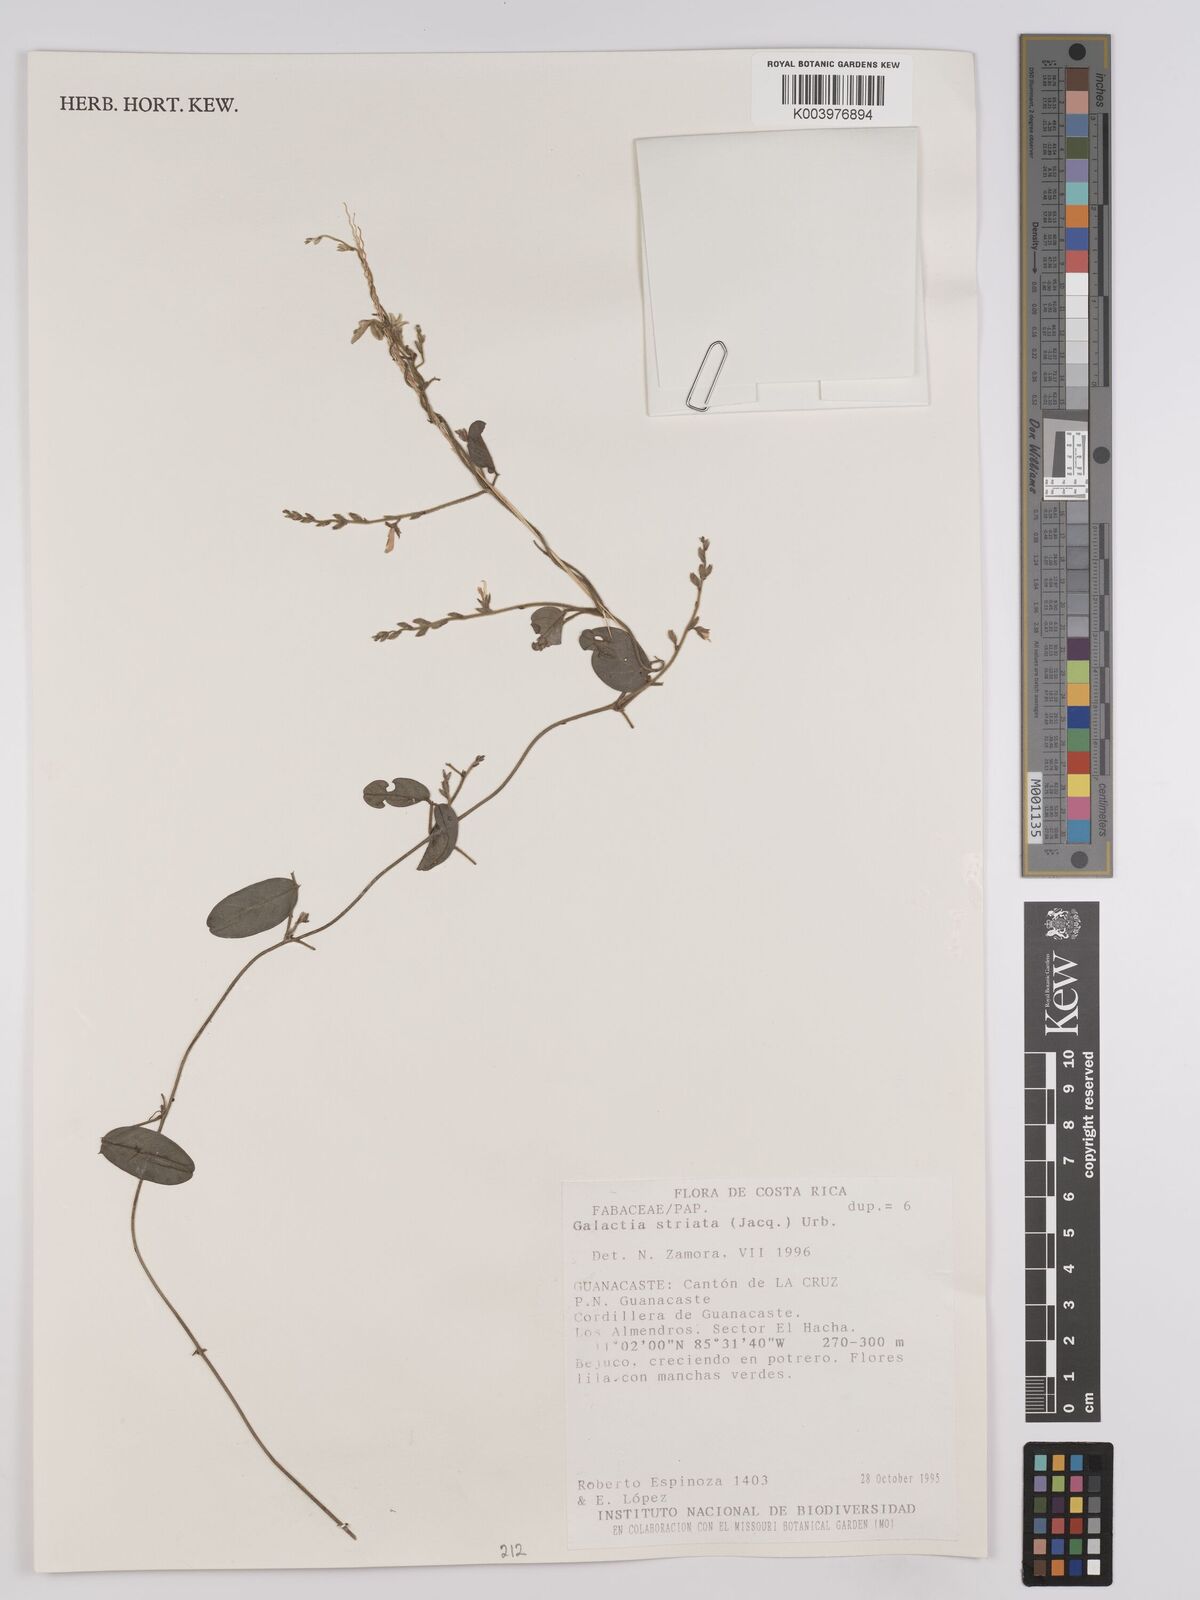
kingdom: Plantae
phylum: Tracheophyta
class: Magnoliopsida
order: Fabales
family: Fabaceae
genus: Galactia
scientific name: Galactia striata
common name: Florida hammock milkpea
